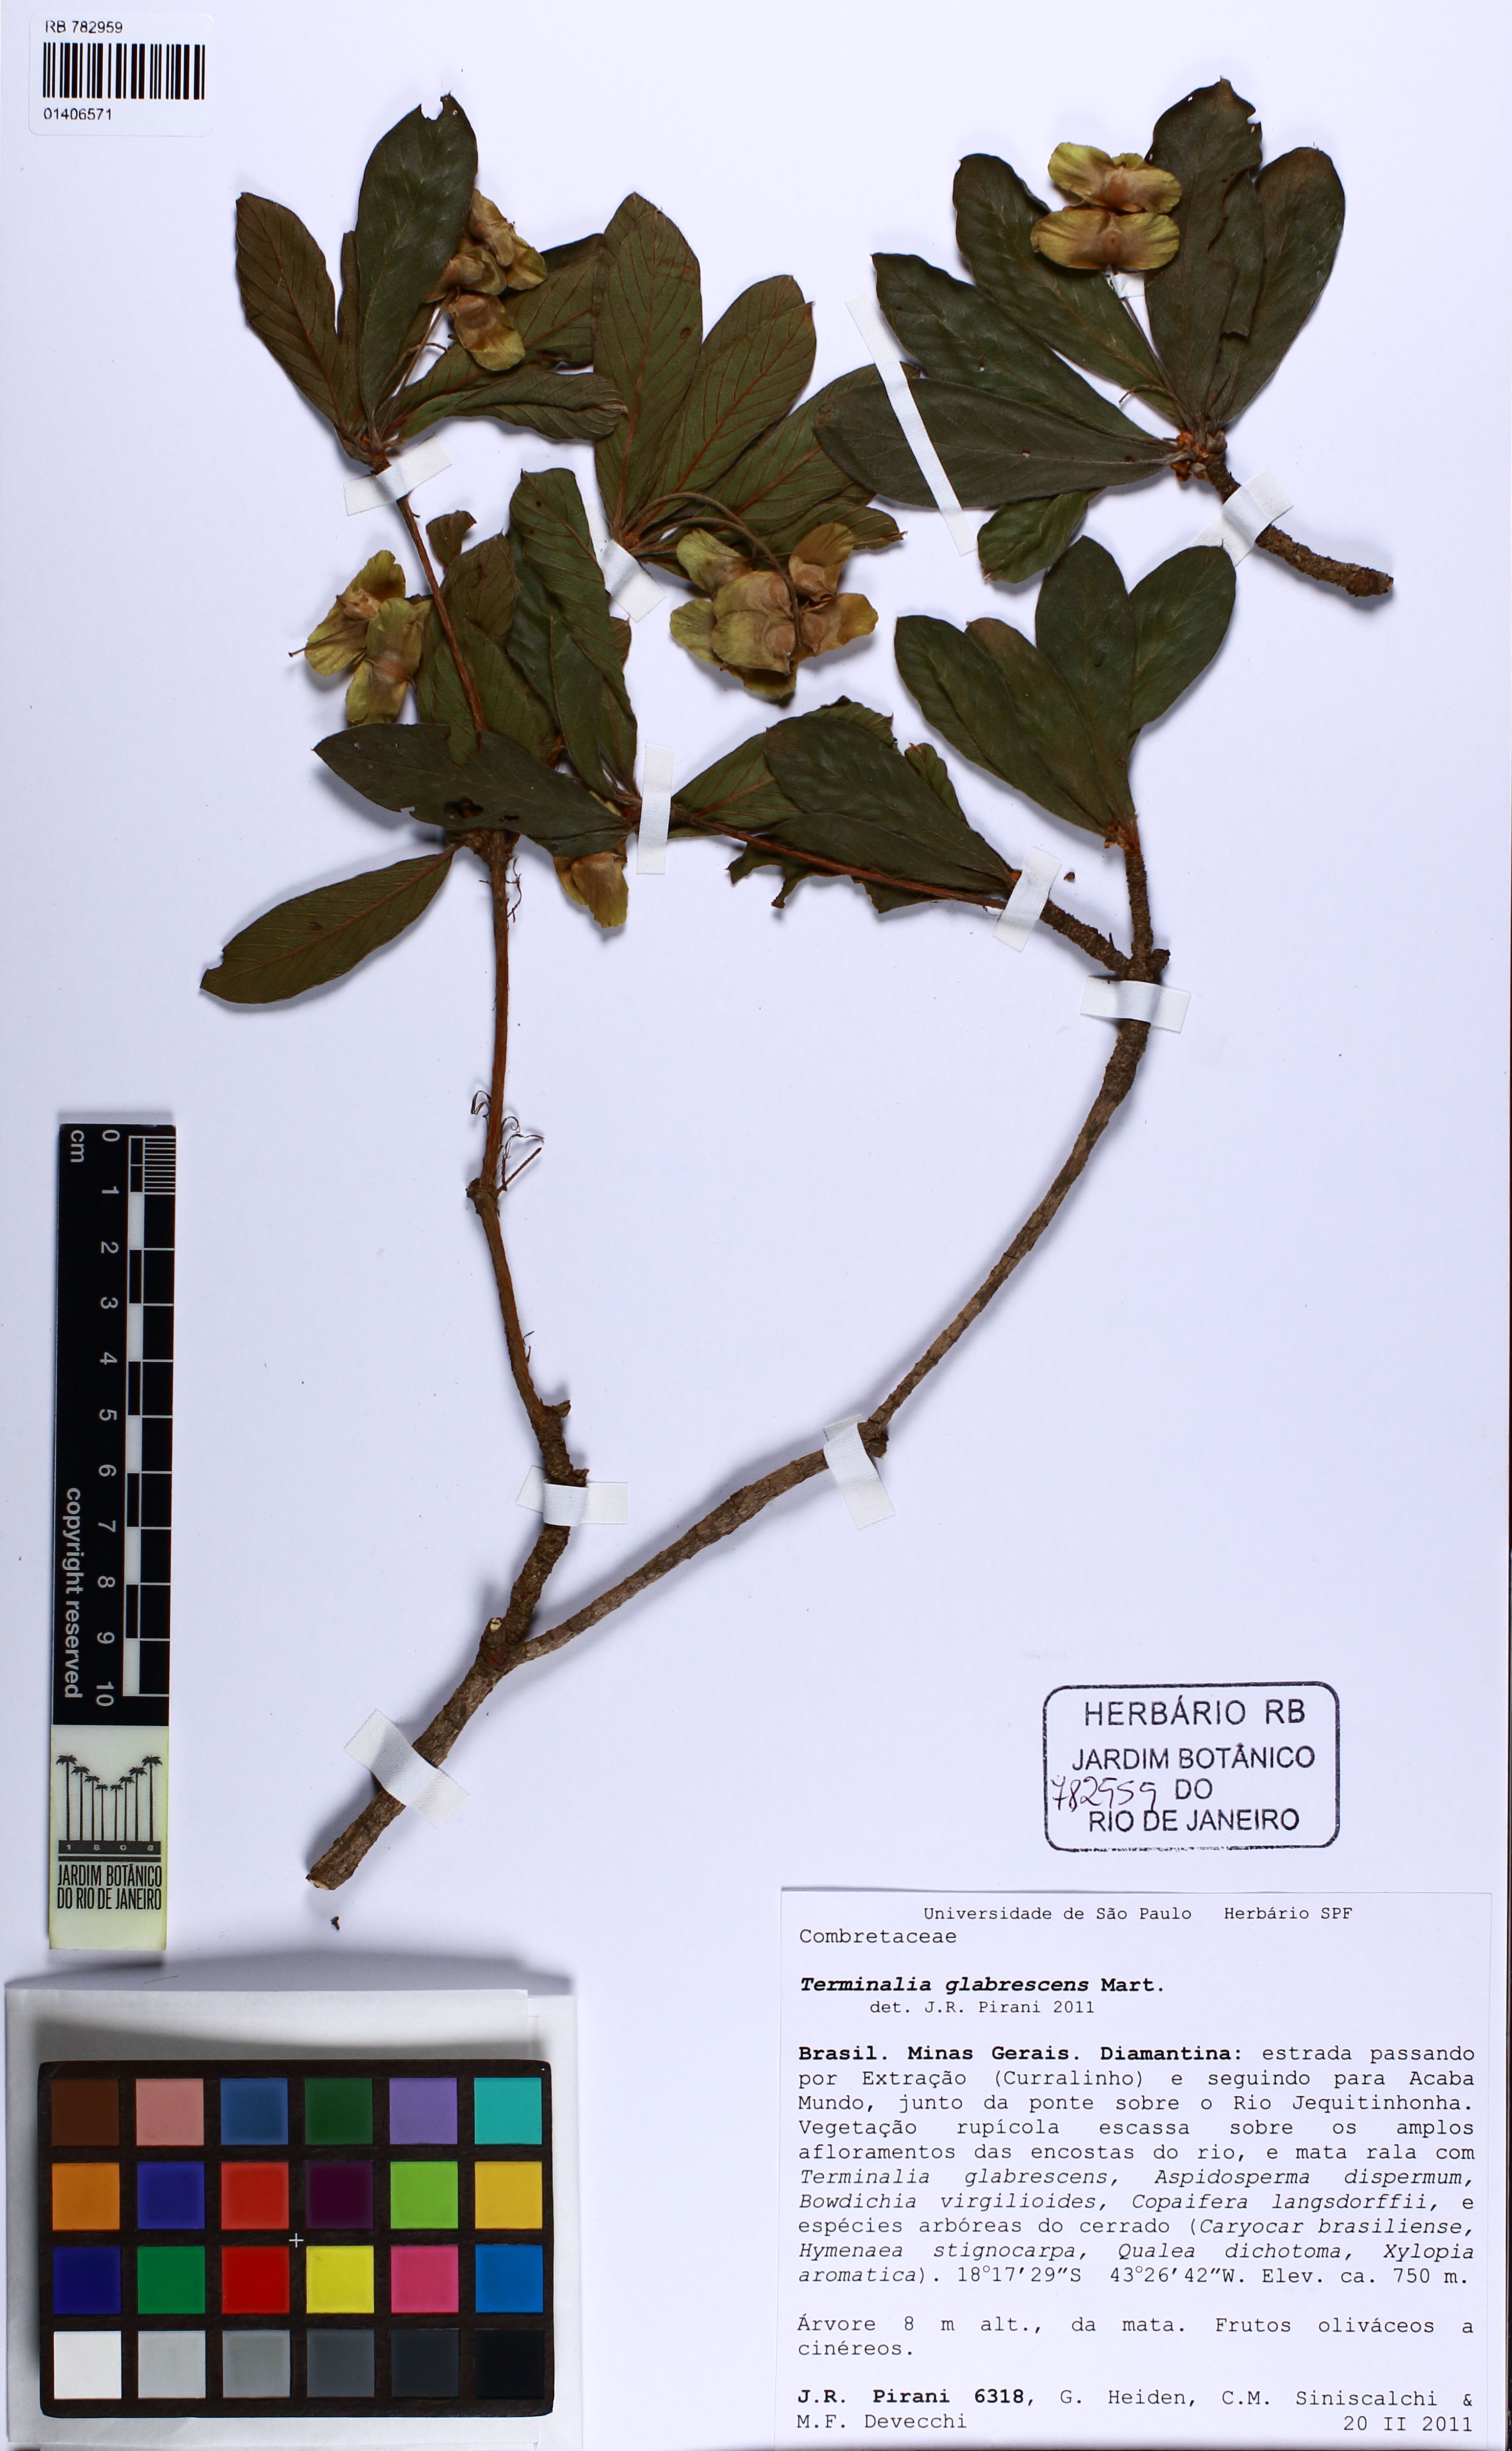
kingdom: Plantae
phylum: Tracheophyta
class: Magnoliopsida
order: Myrtales
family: Combretaceae
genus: Terminalia
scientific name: Terminalia glabrescens
